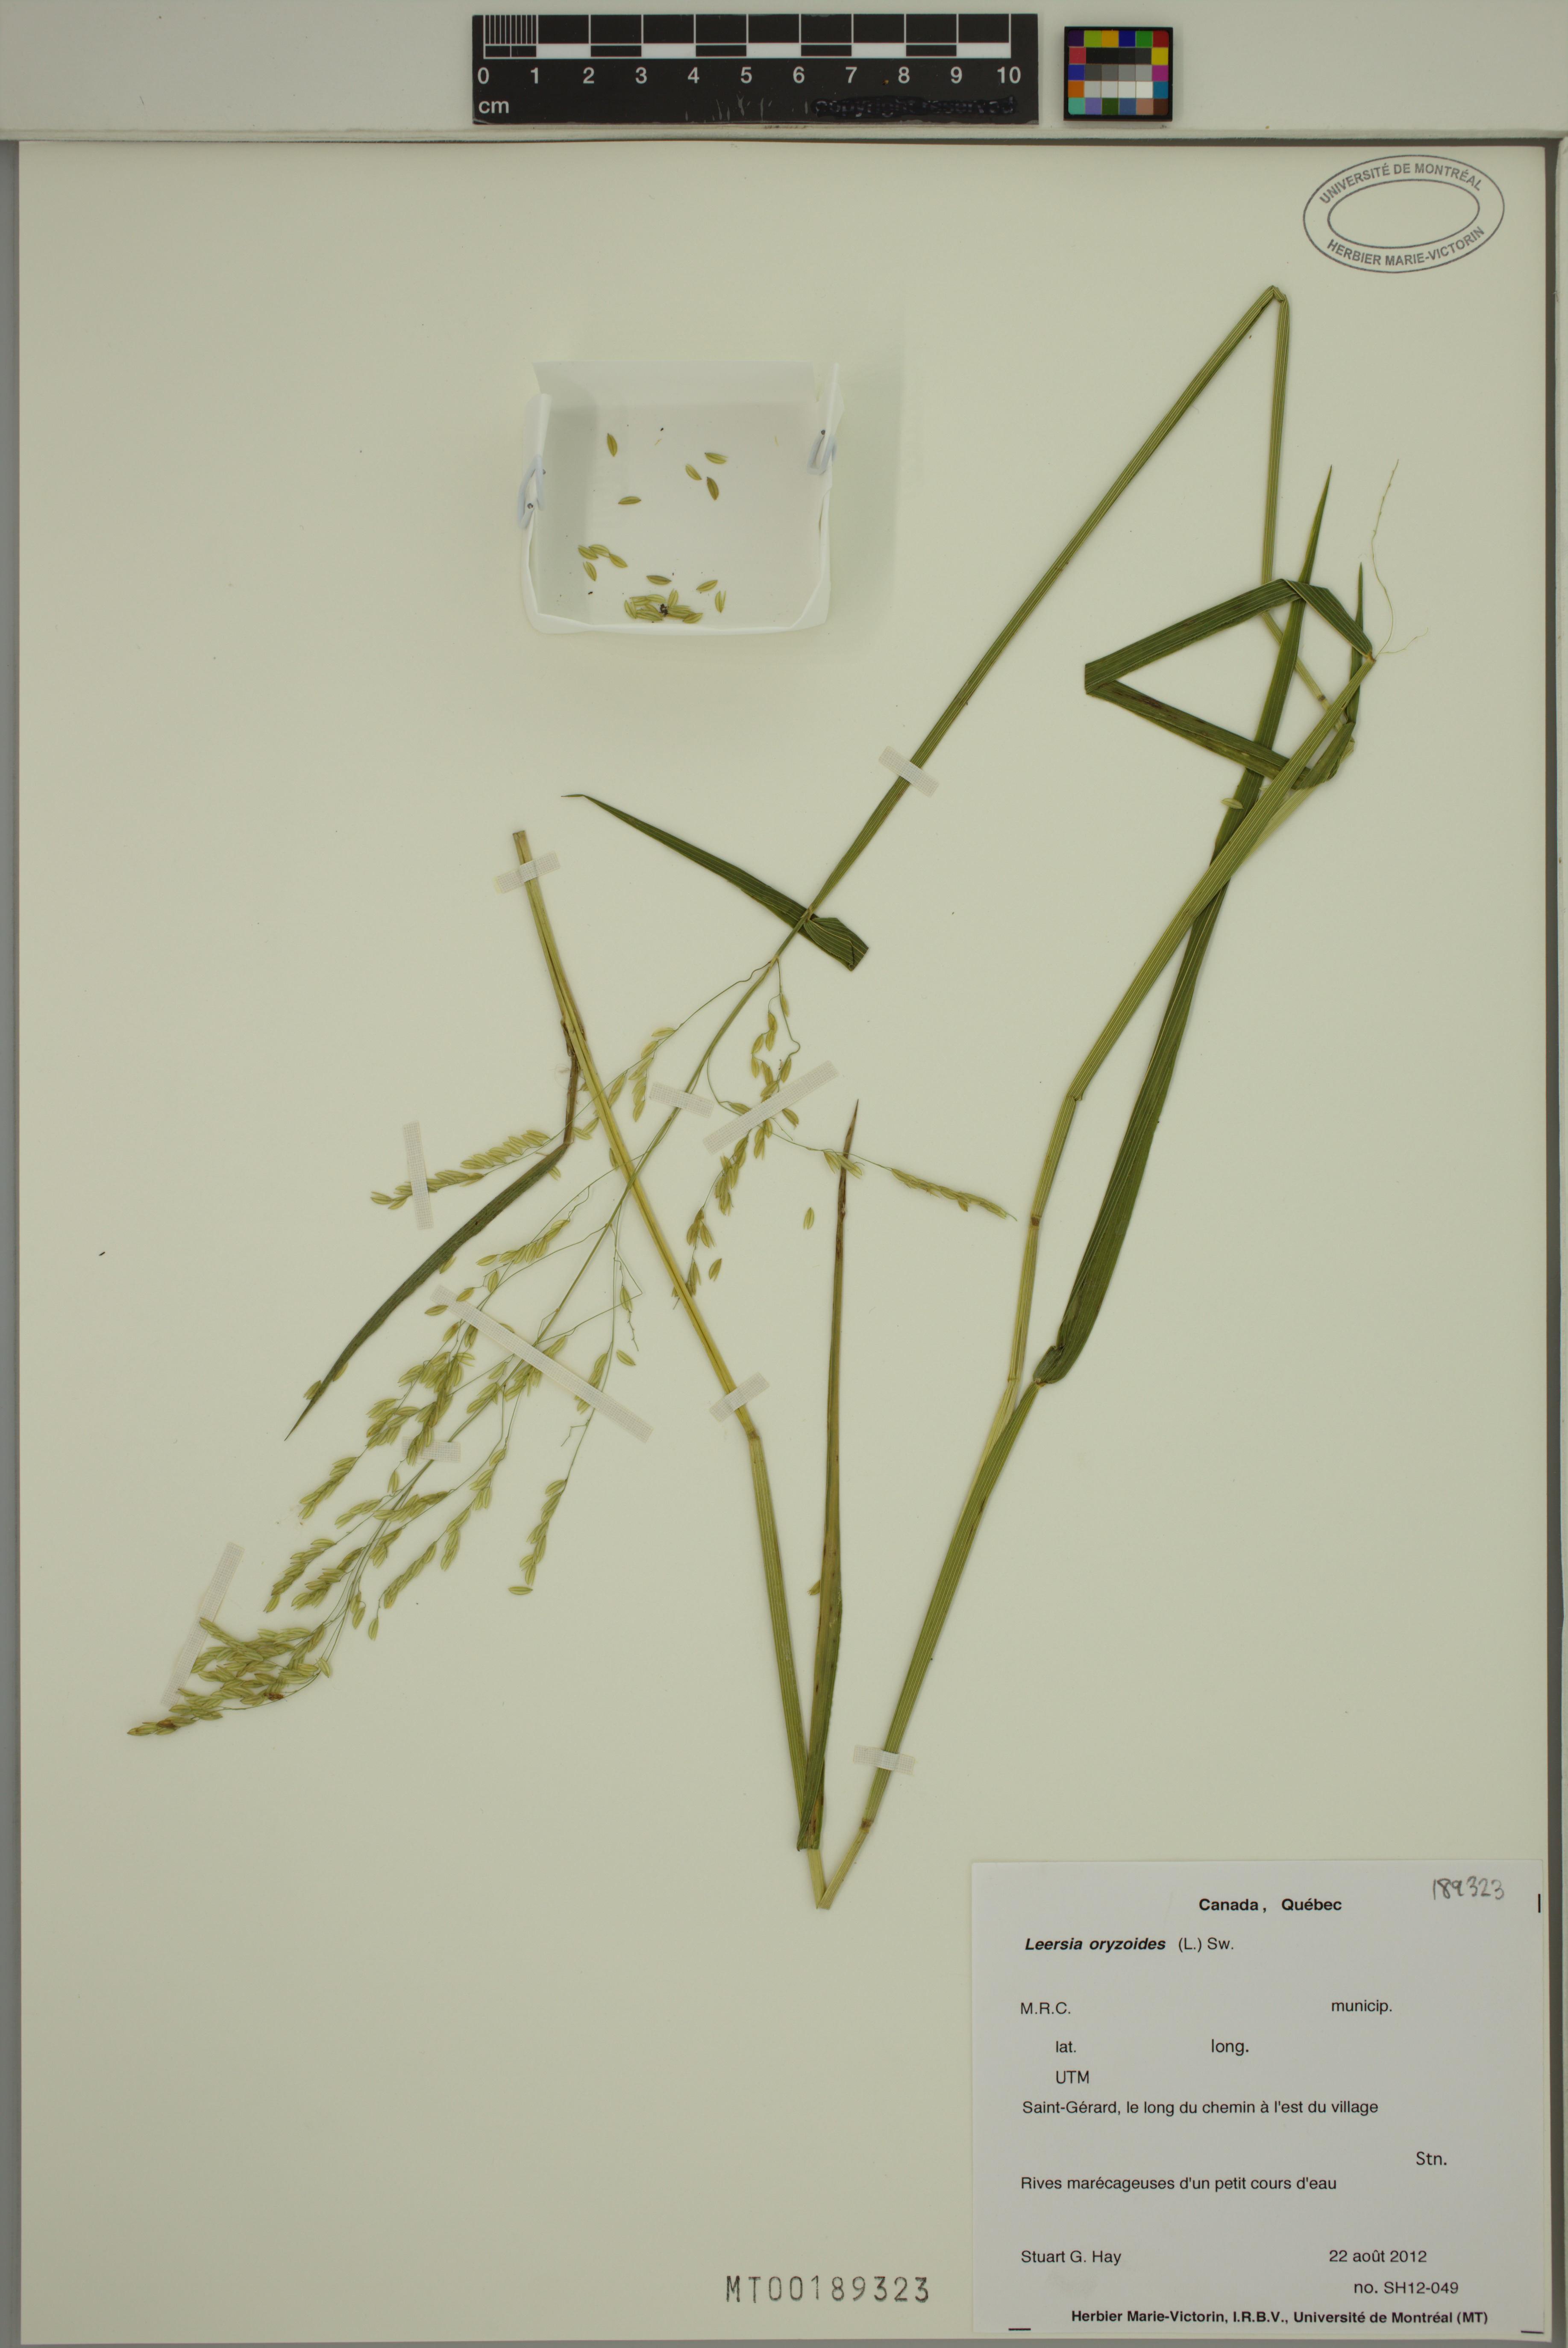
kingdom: Plantae
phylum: Tracheophyta
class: Liliopsida
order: Poales
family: Poaceae
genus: Leersia
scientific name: Leersia oryzoides
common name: Cut-grass
